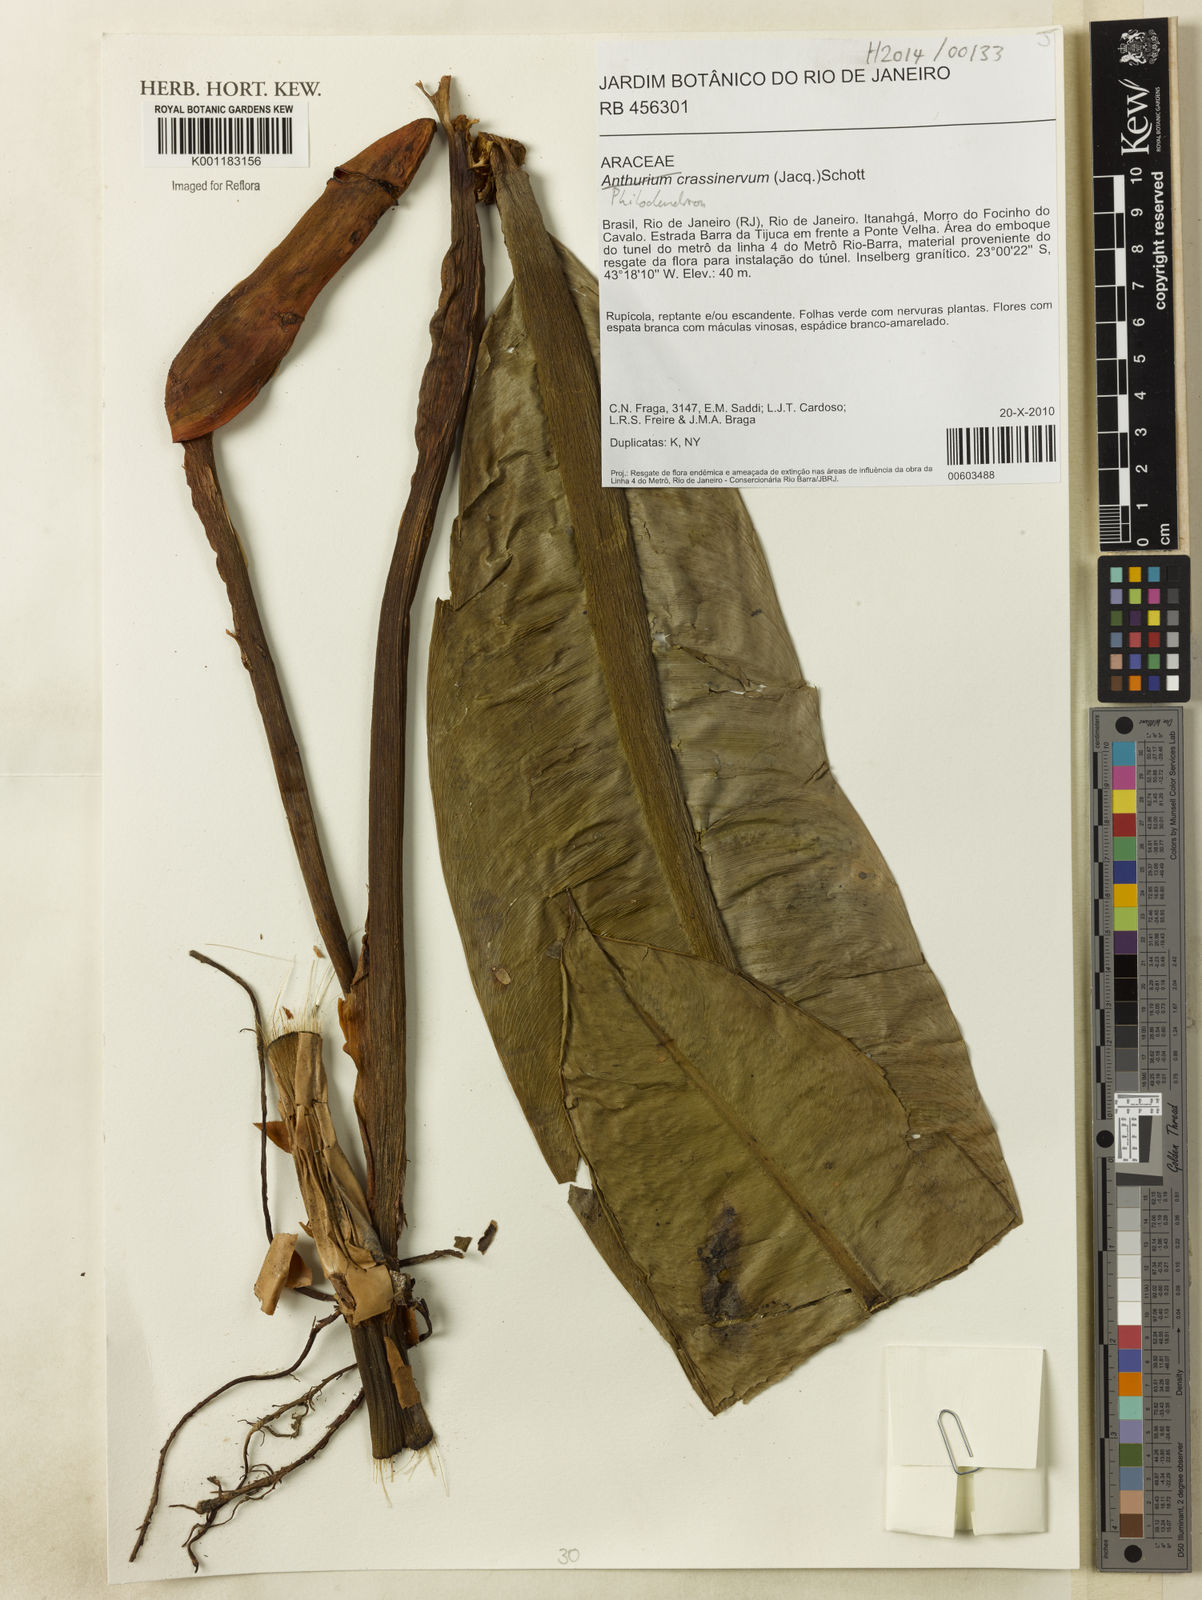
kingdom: Plantae
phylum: Tracheophyta
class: Liliopsida
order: Alismatales
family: Araceae
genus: Philodendron
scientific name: Philodendron crassinervium
